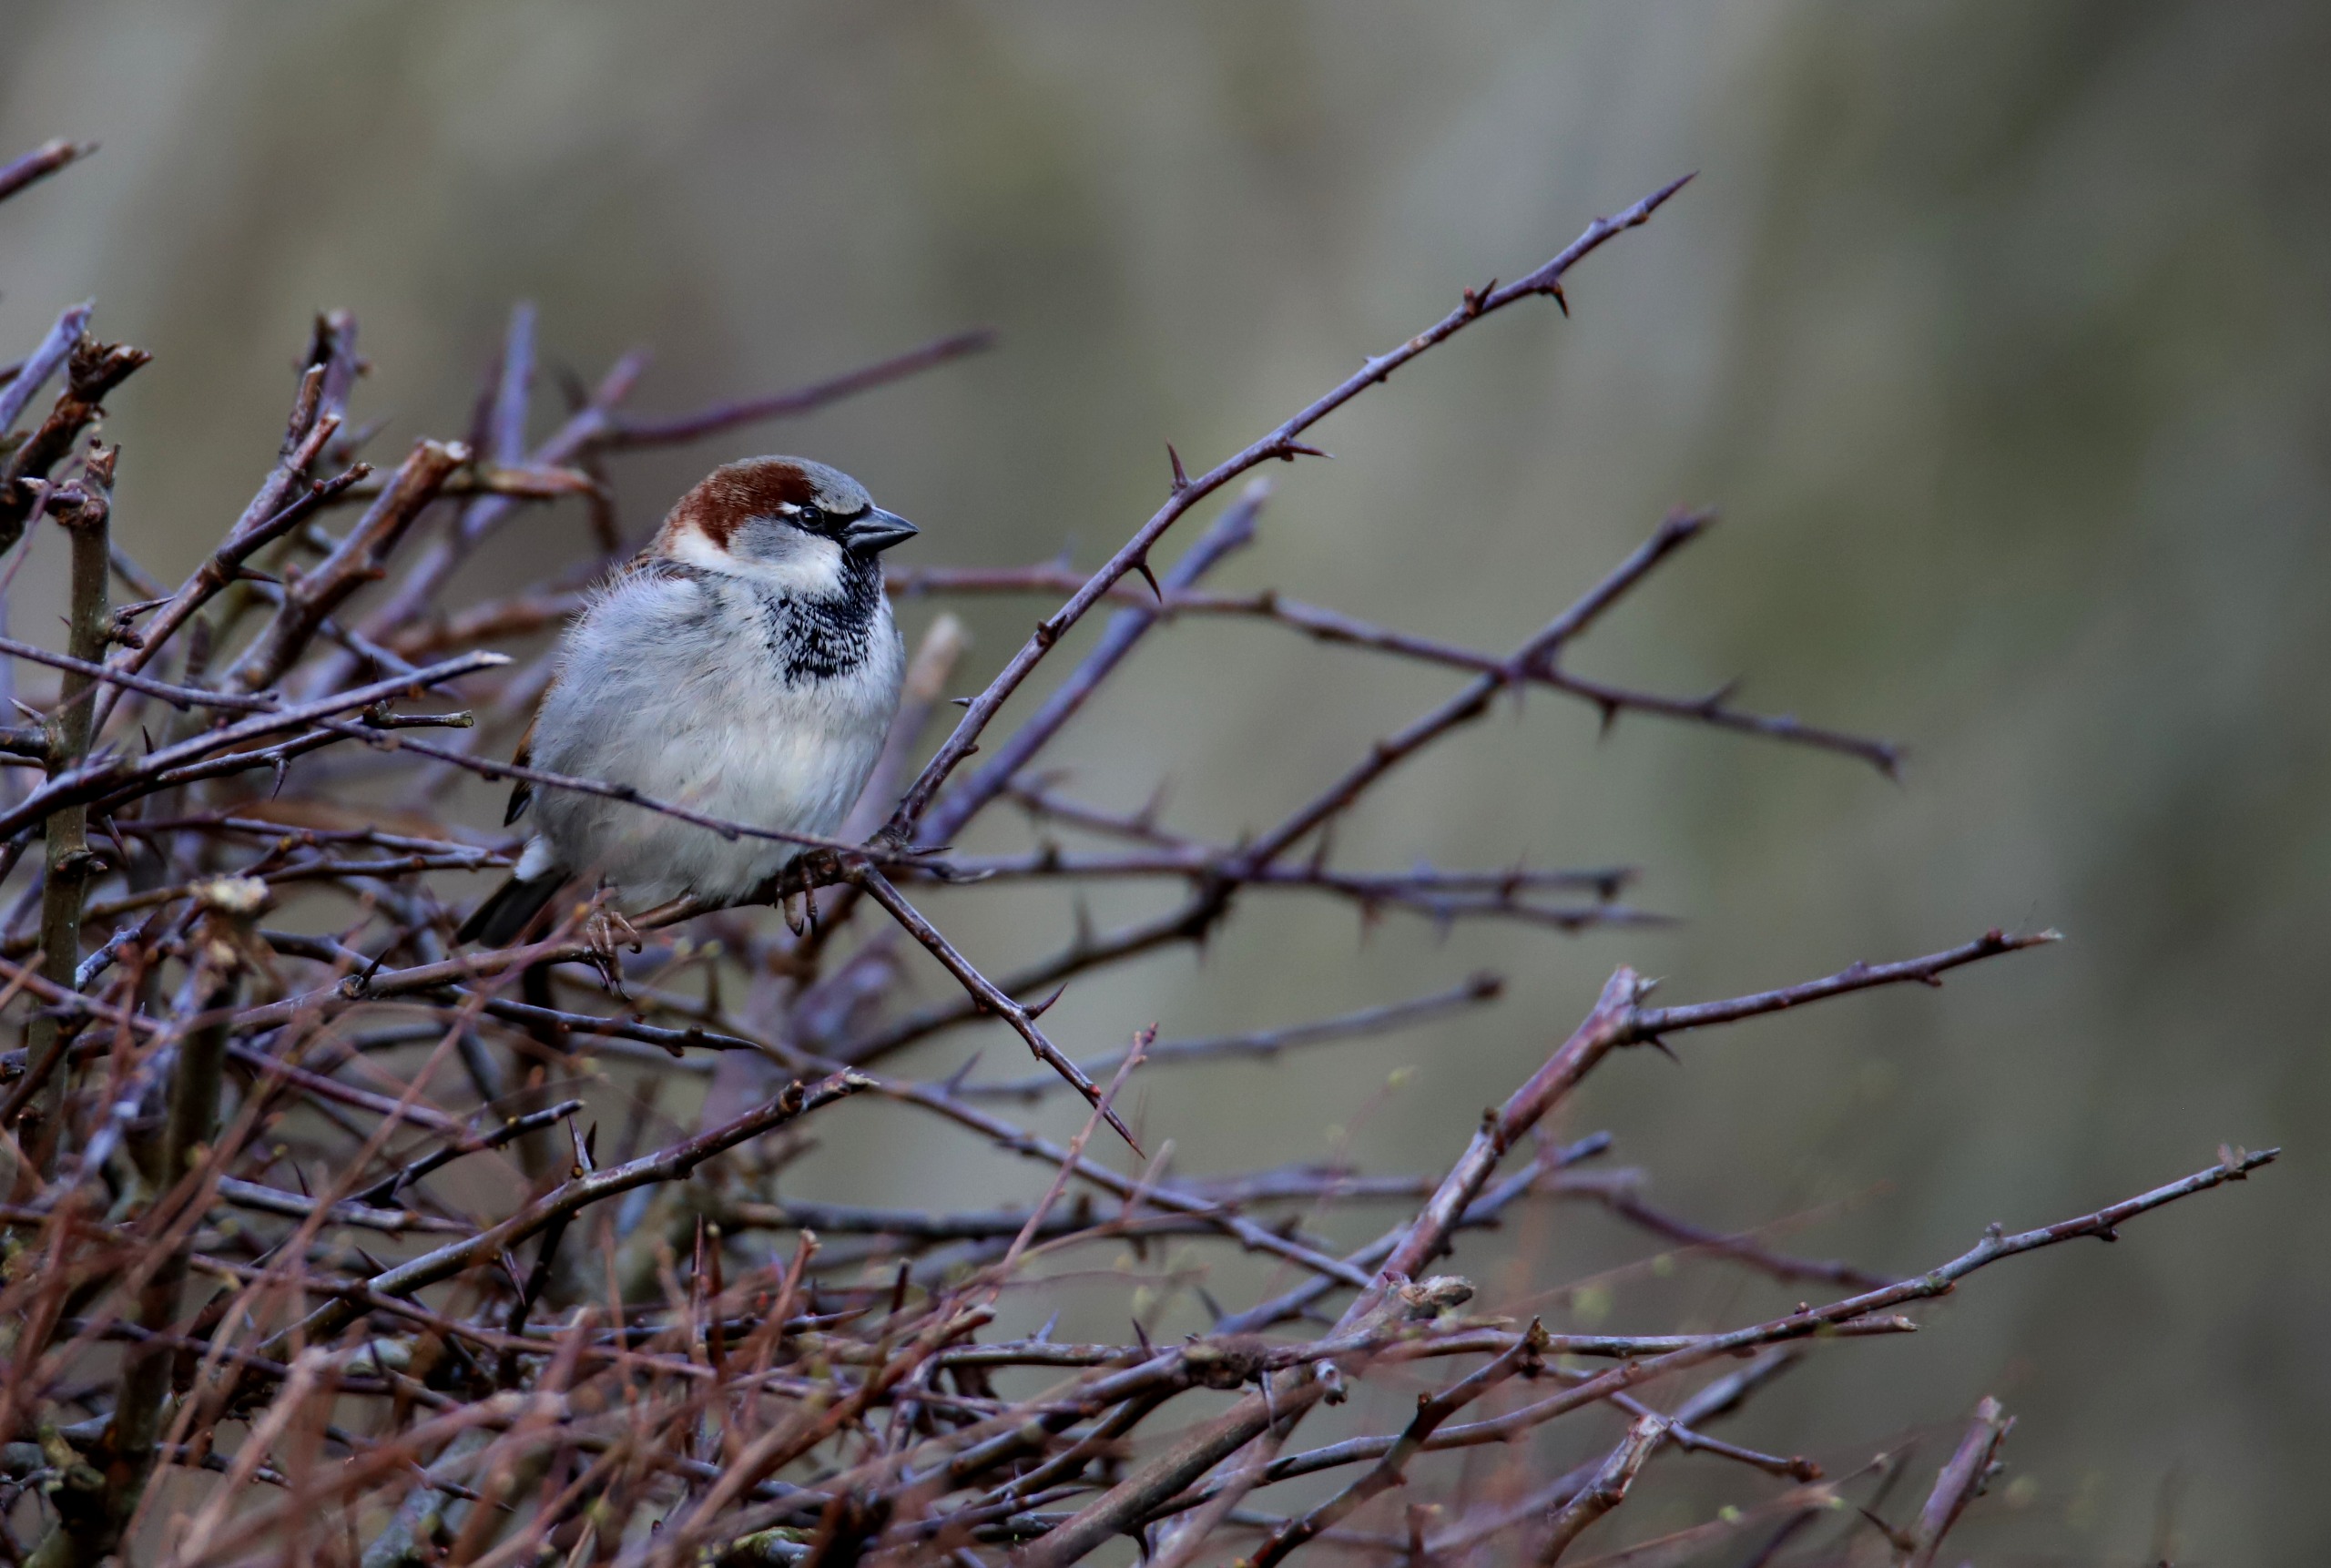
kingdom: Animalia
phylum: Chordata
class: Aves
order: Passeriformes
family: Passeridae
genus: Passer
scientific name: Passer domesticus
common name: Gråspurv
